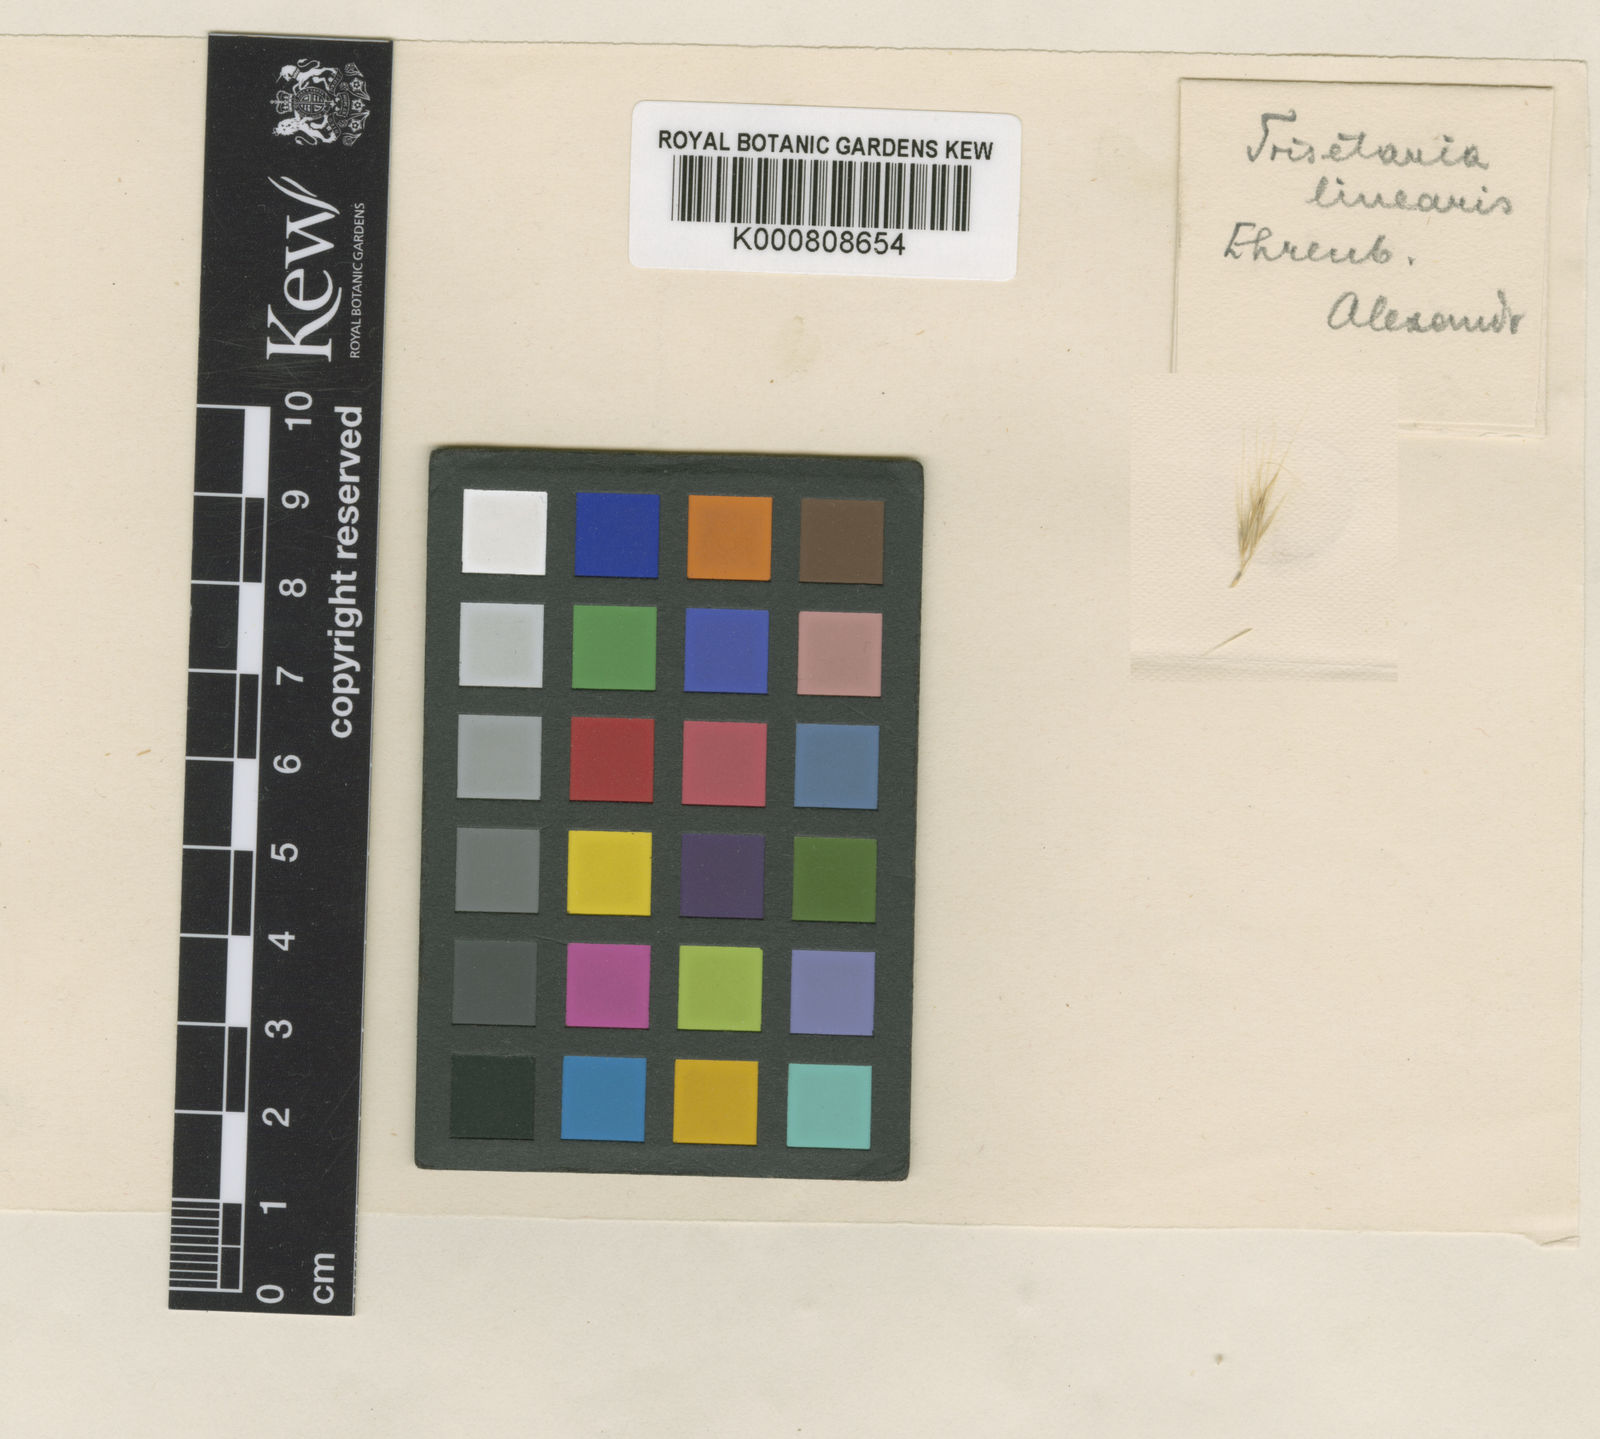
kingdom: Plantae
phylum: Tracheophyta
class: Liliopsida
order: Poales
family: Poaceae
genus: Trisetaria
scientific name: Trisetaria linearis
